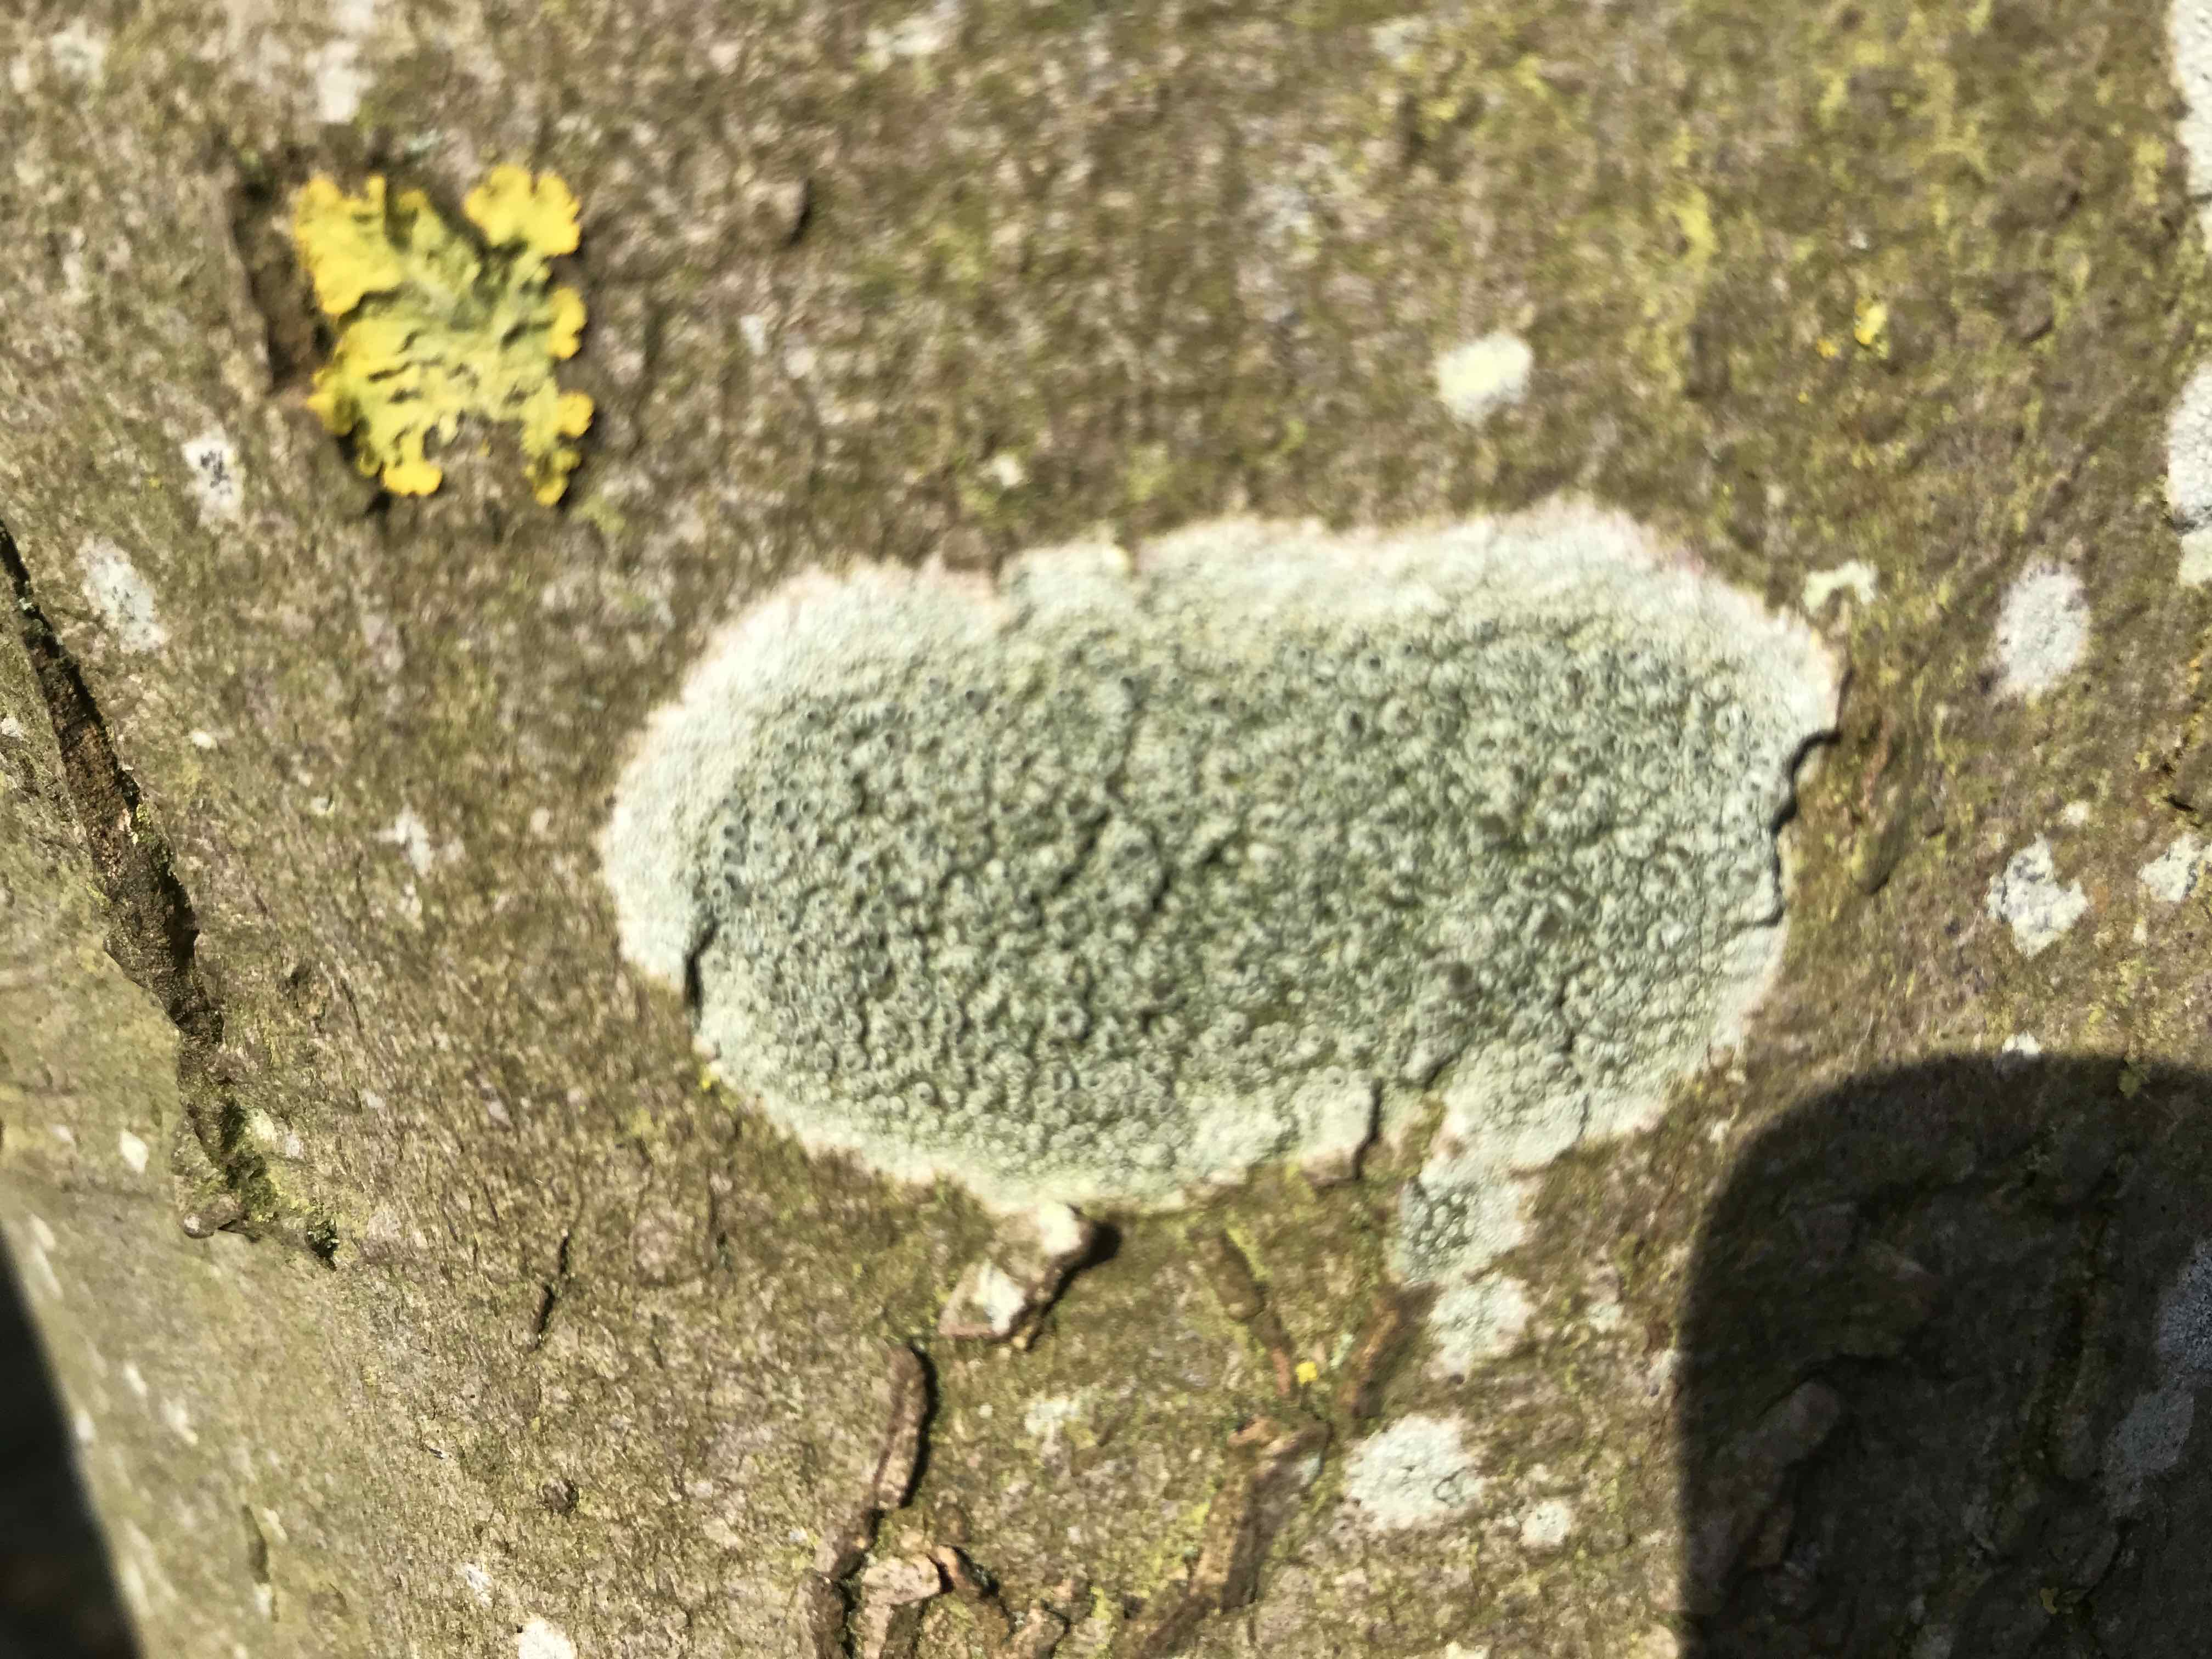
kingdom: Fungi
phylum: Ascomycota
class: Lecanoromycetes
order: Lecanorales
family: Lecanoraceae
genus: Lecidella
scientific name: Lecidella elaeochroma
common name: grågrøn skivelav
